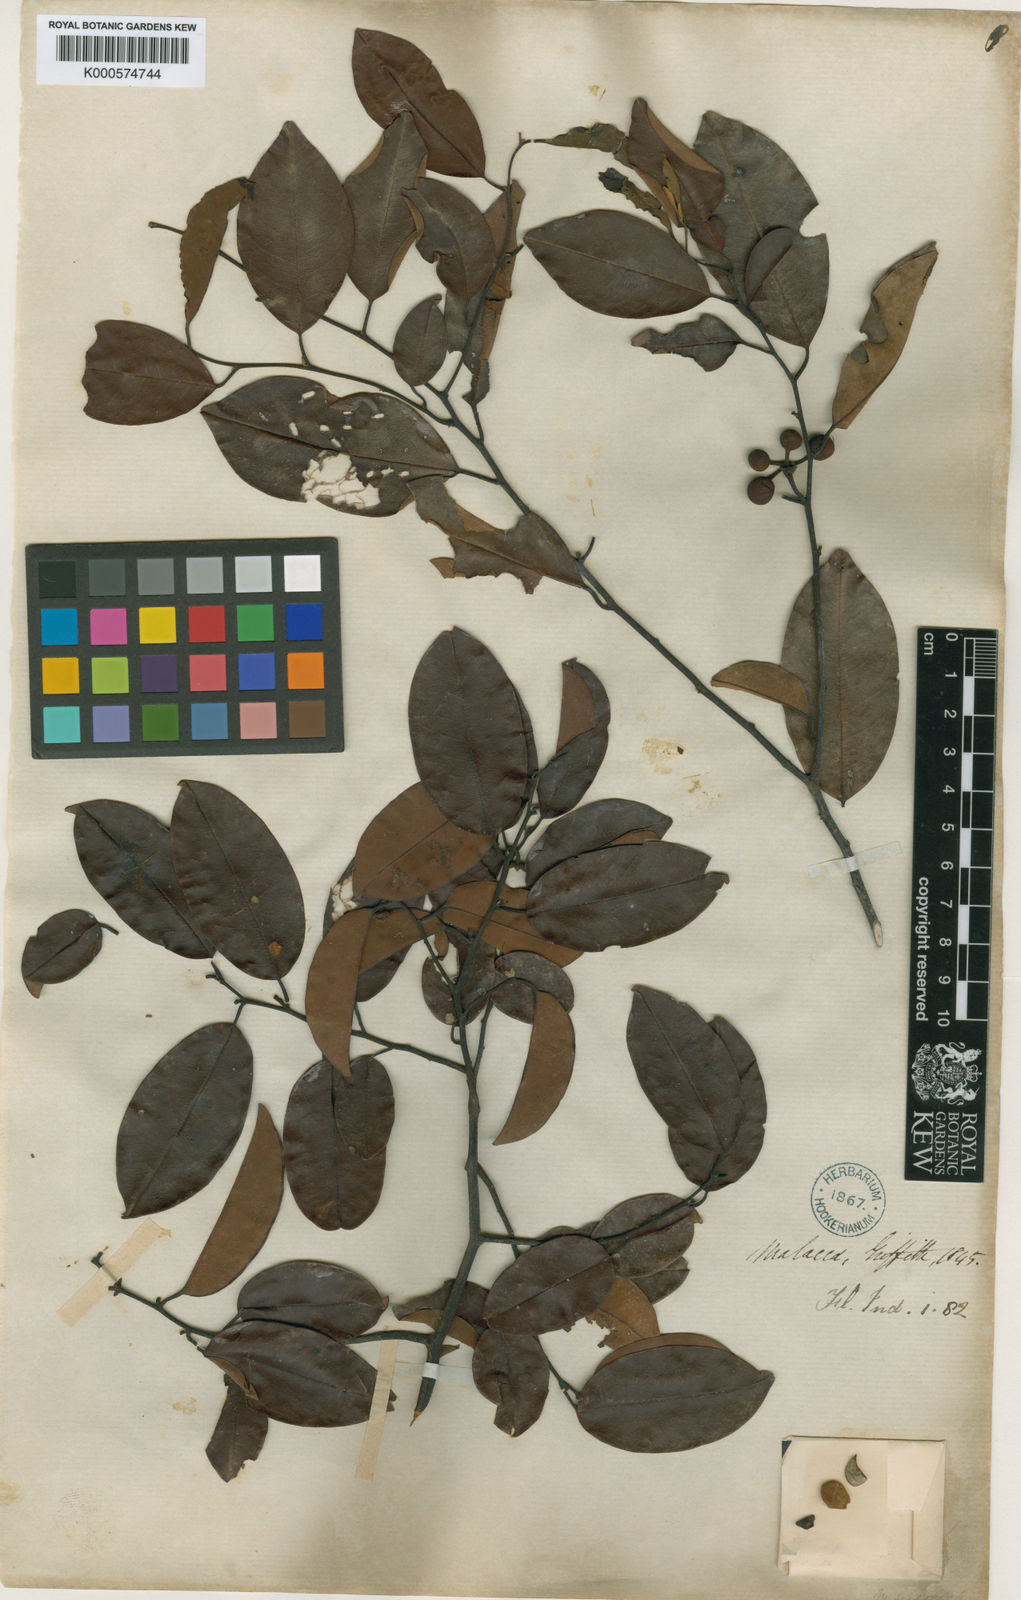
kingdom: Plantae
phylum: Tracheophyta
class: Magnoliopsida
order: Magnoliales
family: Annonaceae
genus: Mitrella
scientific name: Mitrella kentii
